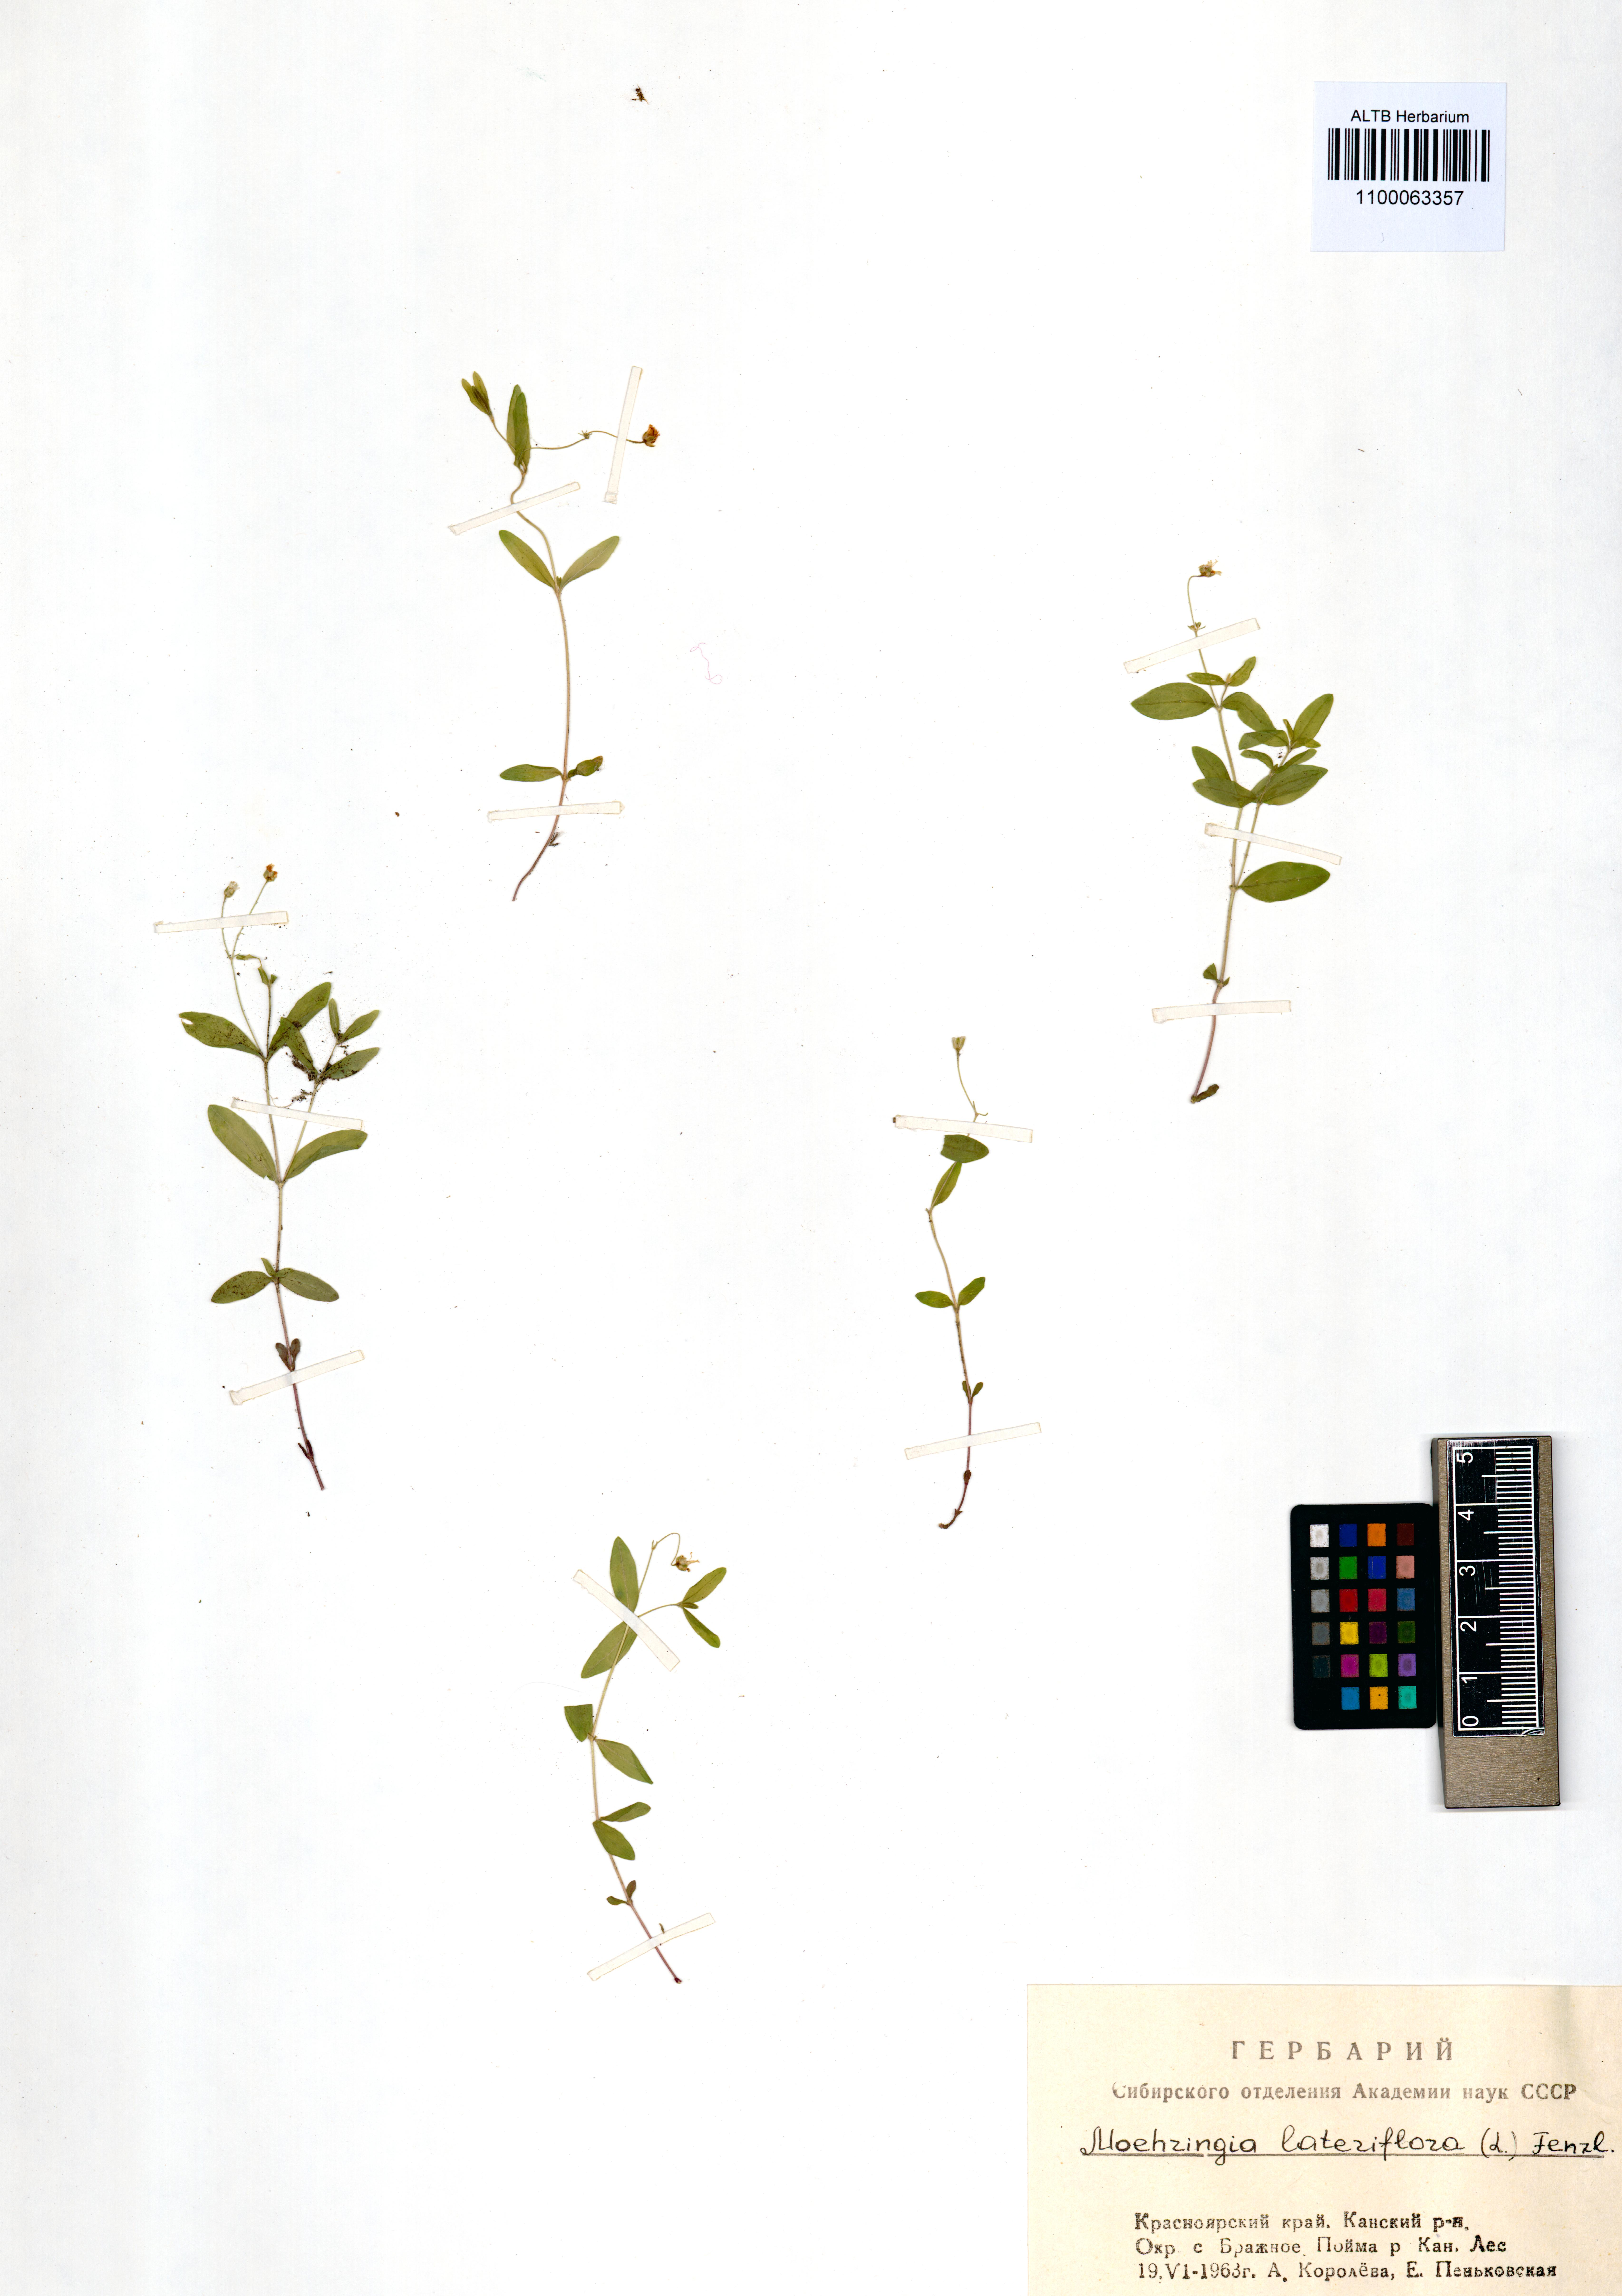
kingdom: Plantae
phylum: Tracheophyta
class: Magnoliopsida
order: Caryophyllales
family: Caryophyllaceae
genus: Moehringia
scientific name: Moehringia lateriflora
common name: Blunt-leaved sandwort
